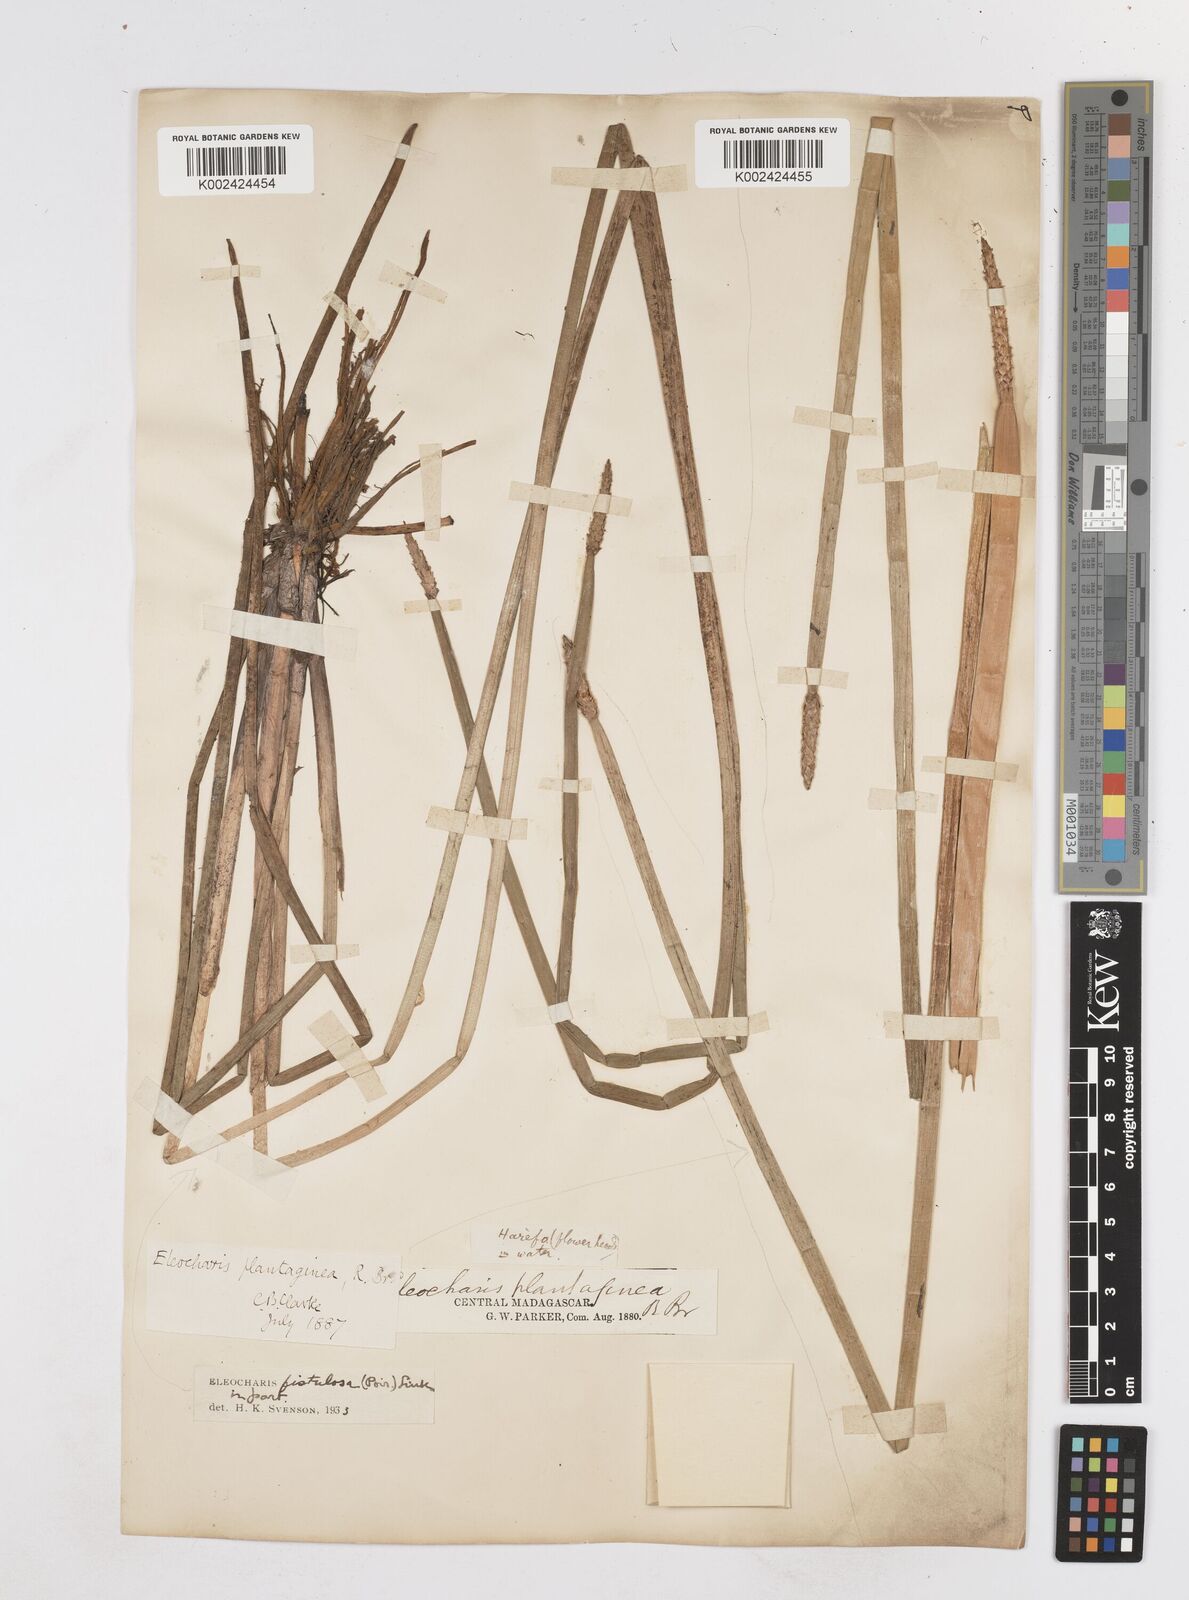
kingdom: Plantae
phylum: Tracheophyta
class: Liliopsida
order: Poales
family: Cyperaceae
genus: Eleocharis
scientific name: Eleocharis acutangula
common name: Acute spikerush
